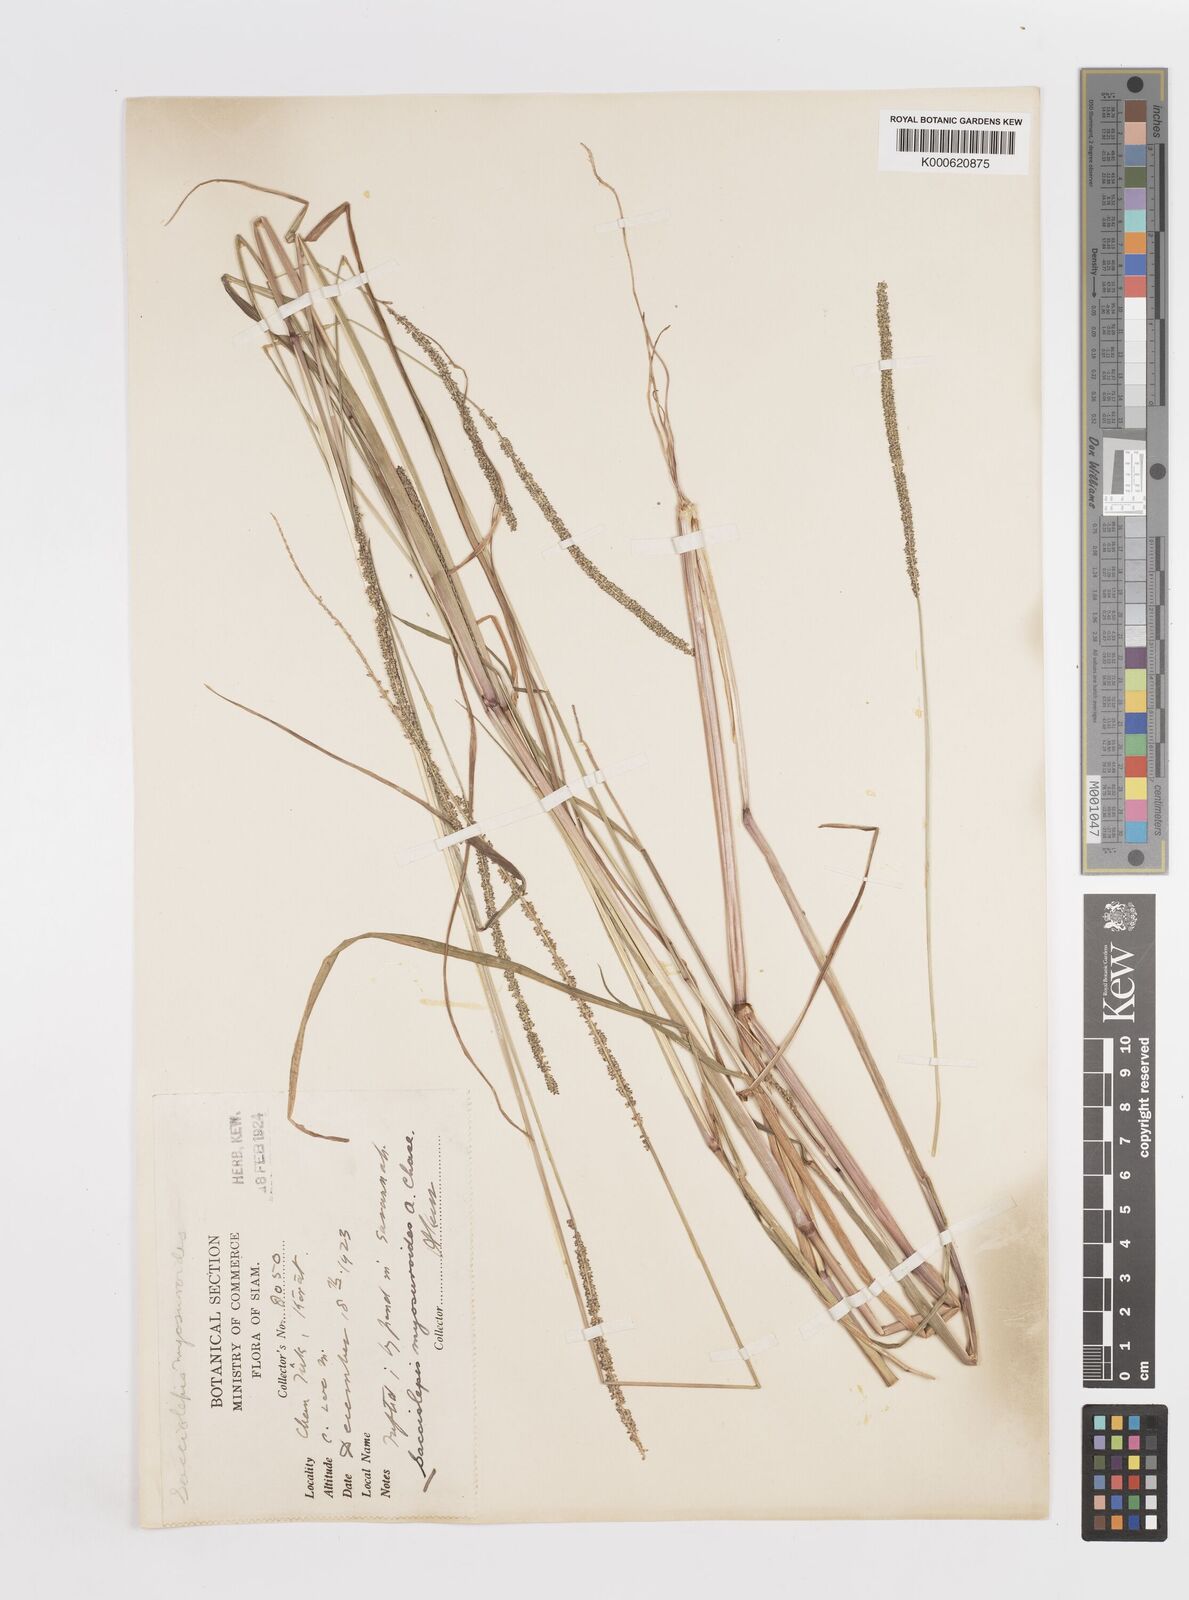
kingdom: Plantae
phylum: Tracheophyta
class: Liliopsida
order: Poales
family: Poaceae
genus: Sacciolepis
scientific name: Sacciolepis myosuroides
